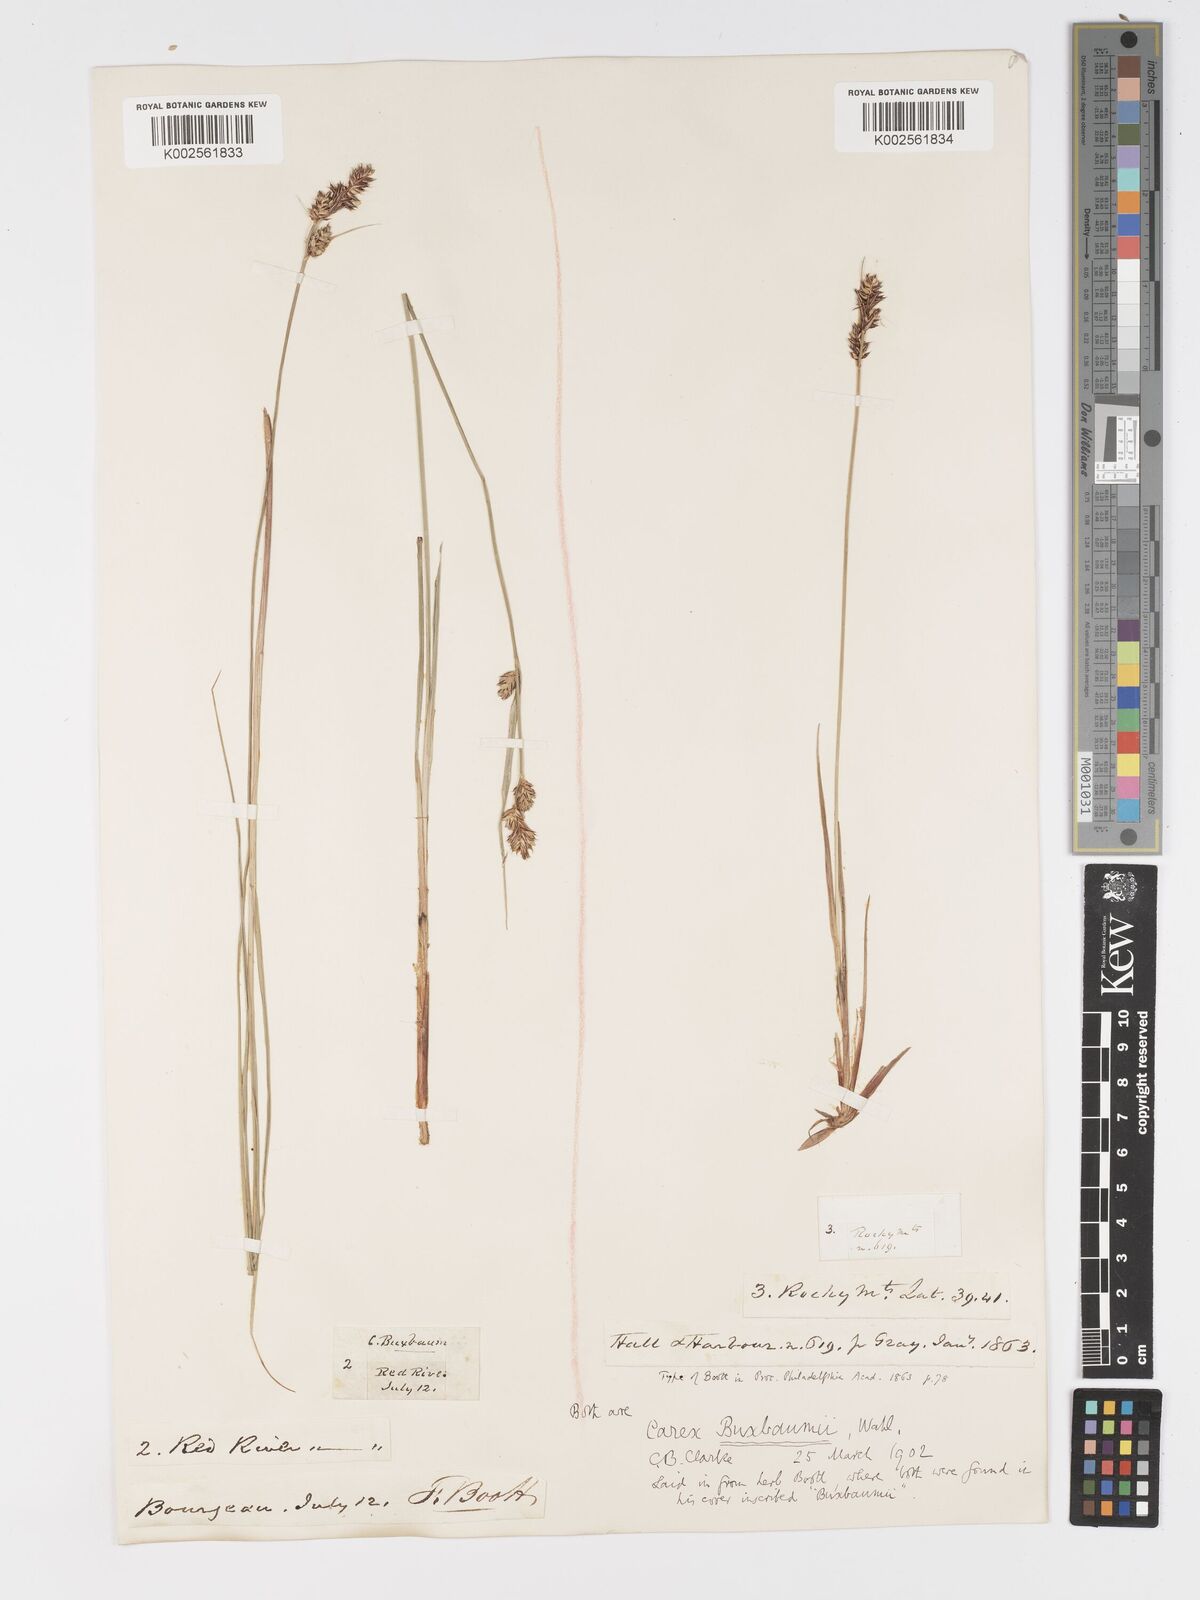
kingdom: Plantae
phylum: Tracheophyta
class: Liliopsida
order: Poales
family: Cyperaceae
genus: Carex
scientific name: Carex buxbaumii
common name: Club sedge
